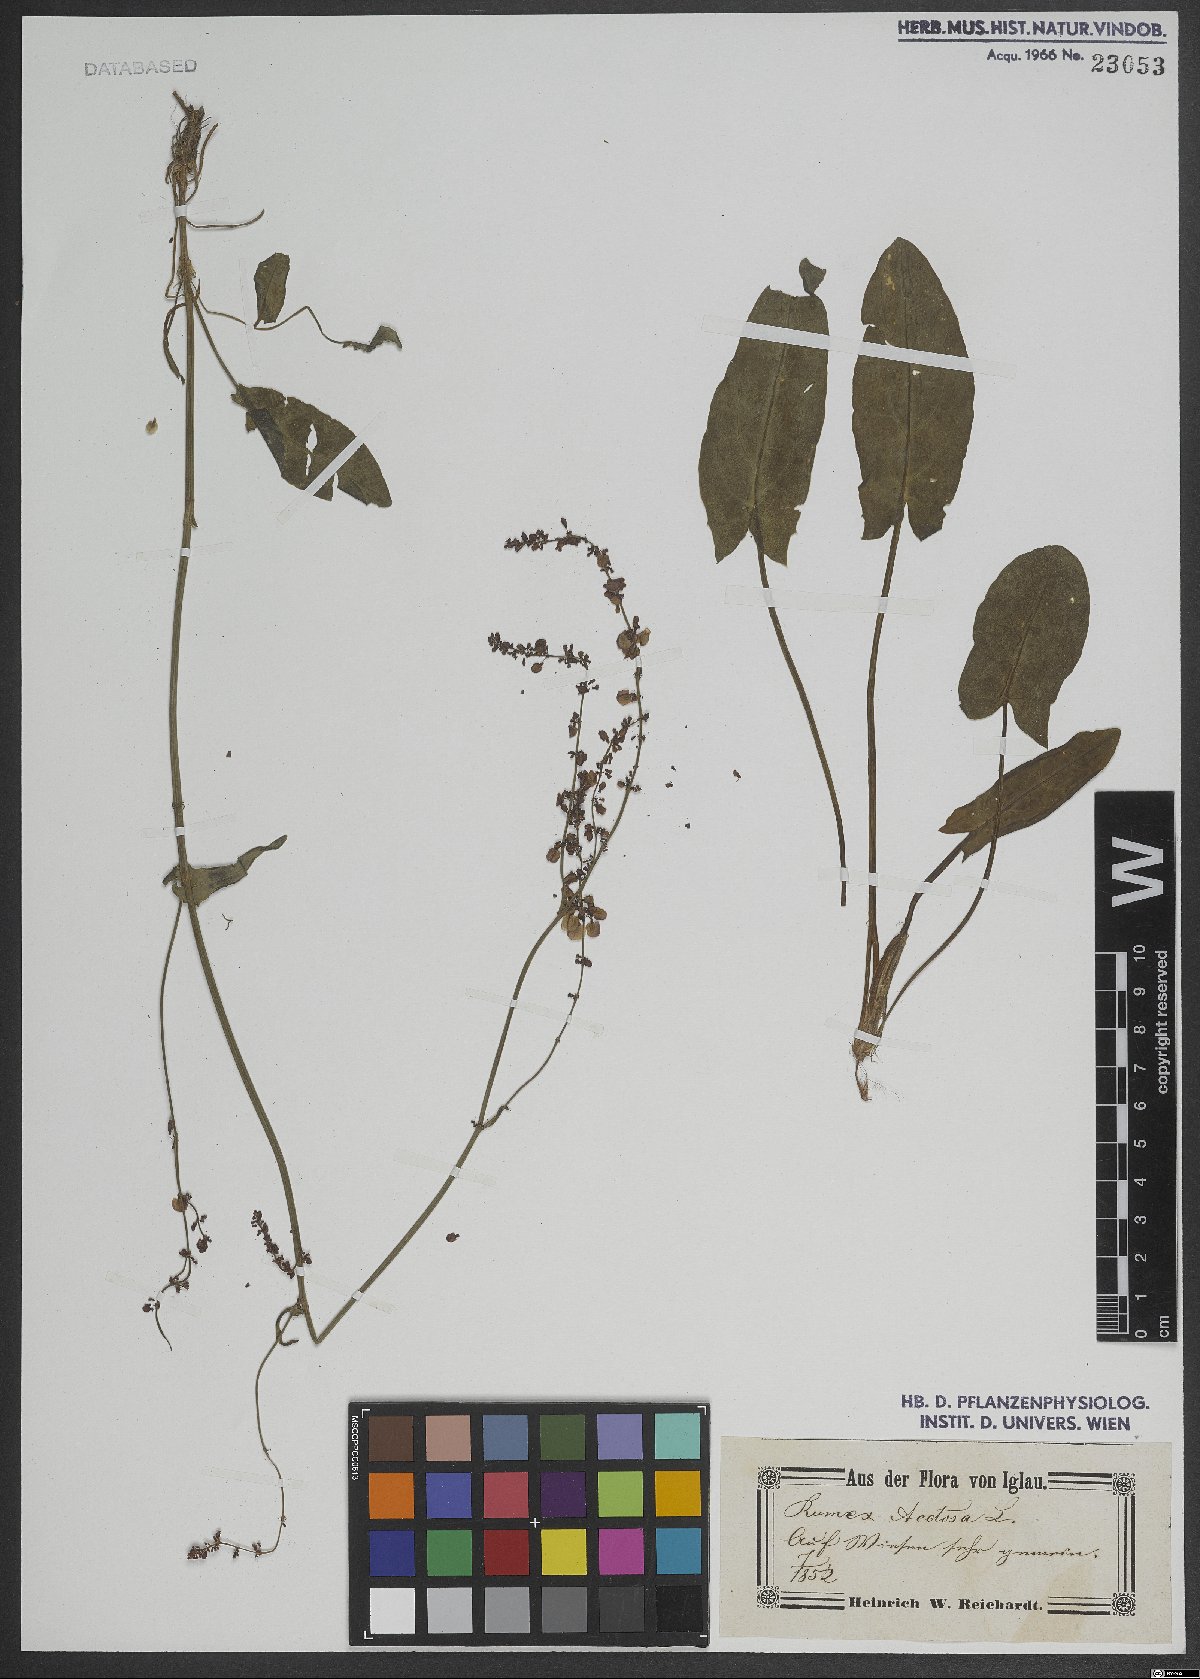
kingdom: Plantae
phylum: Tracheophyta
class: Magnoliopsida
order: Caryophyllales
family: Polygonaceae
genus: Rumex
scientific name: Rumex acetosa
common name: Garden sorrel
